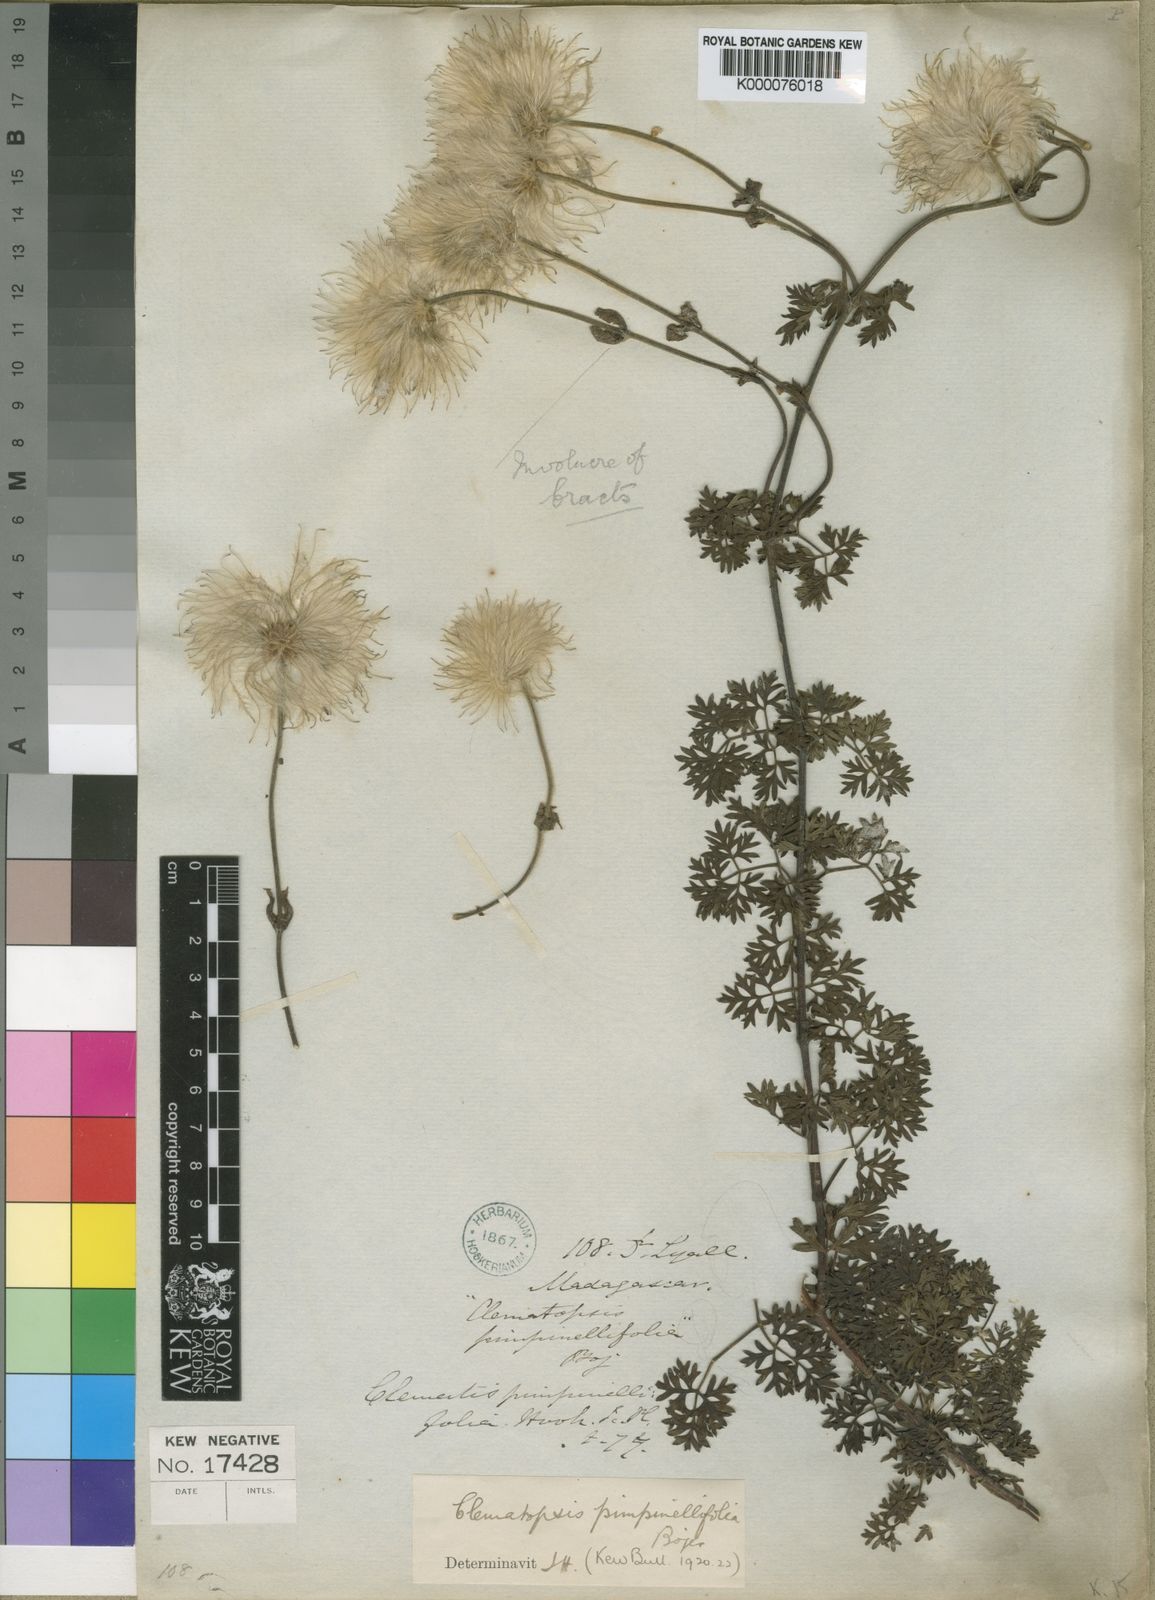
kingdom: Plantae
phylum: Tracheophyta
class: Magnoliopsida
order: Ranunculales
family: Ranunculaceae
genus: Clematis
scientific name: Clematis oligophylla
